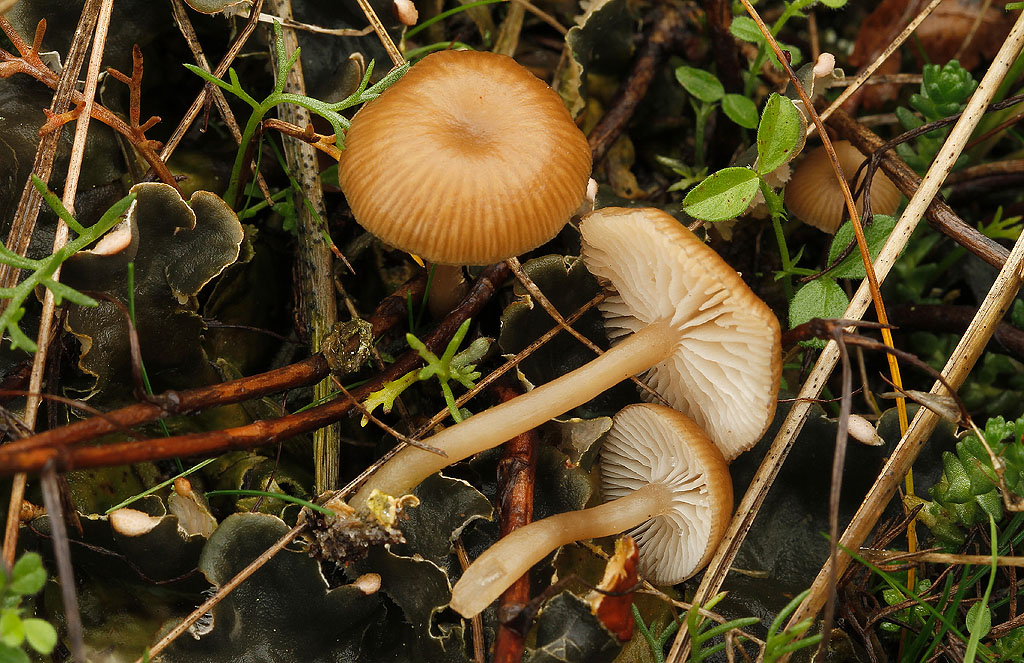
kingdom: Fungi
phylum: Basidiomycota
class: Agaricomycetes
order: Agaricales
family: Tricholomataceae
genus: Gamundia
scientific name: Gamundia xerophila
